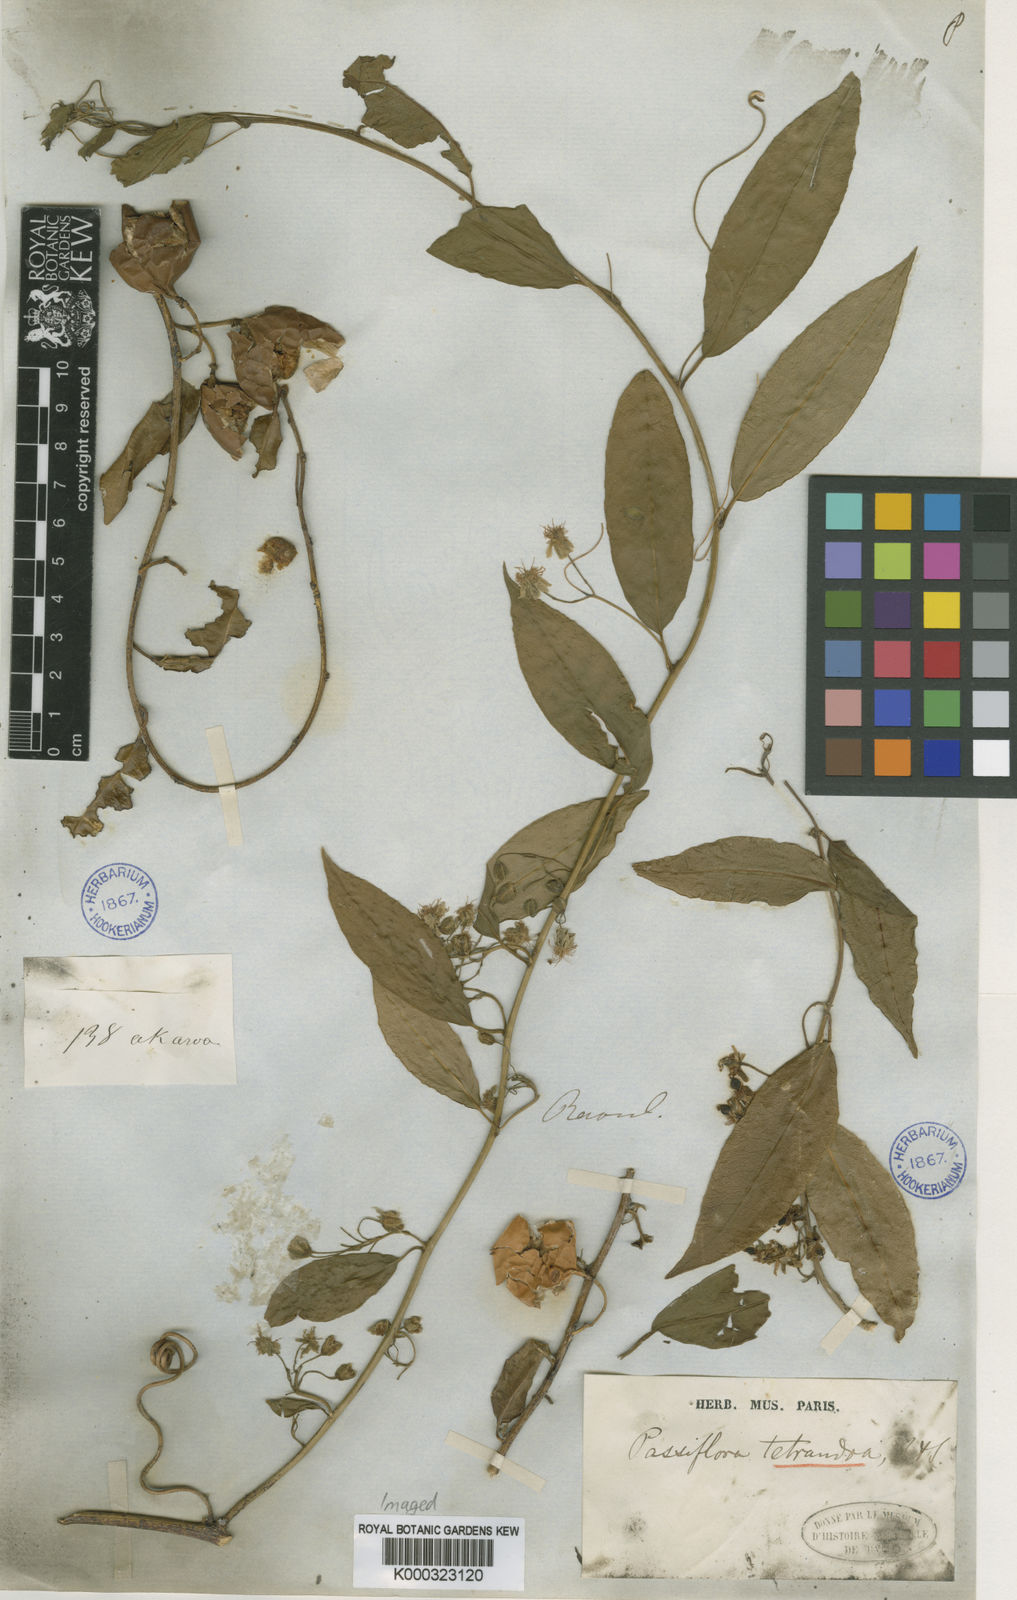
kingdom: Plantae
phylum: Tracheophyta
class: Magnoliopsida
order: Malpighiales
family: Passifloraceae
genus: Passiflora
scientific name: Passiflora
